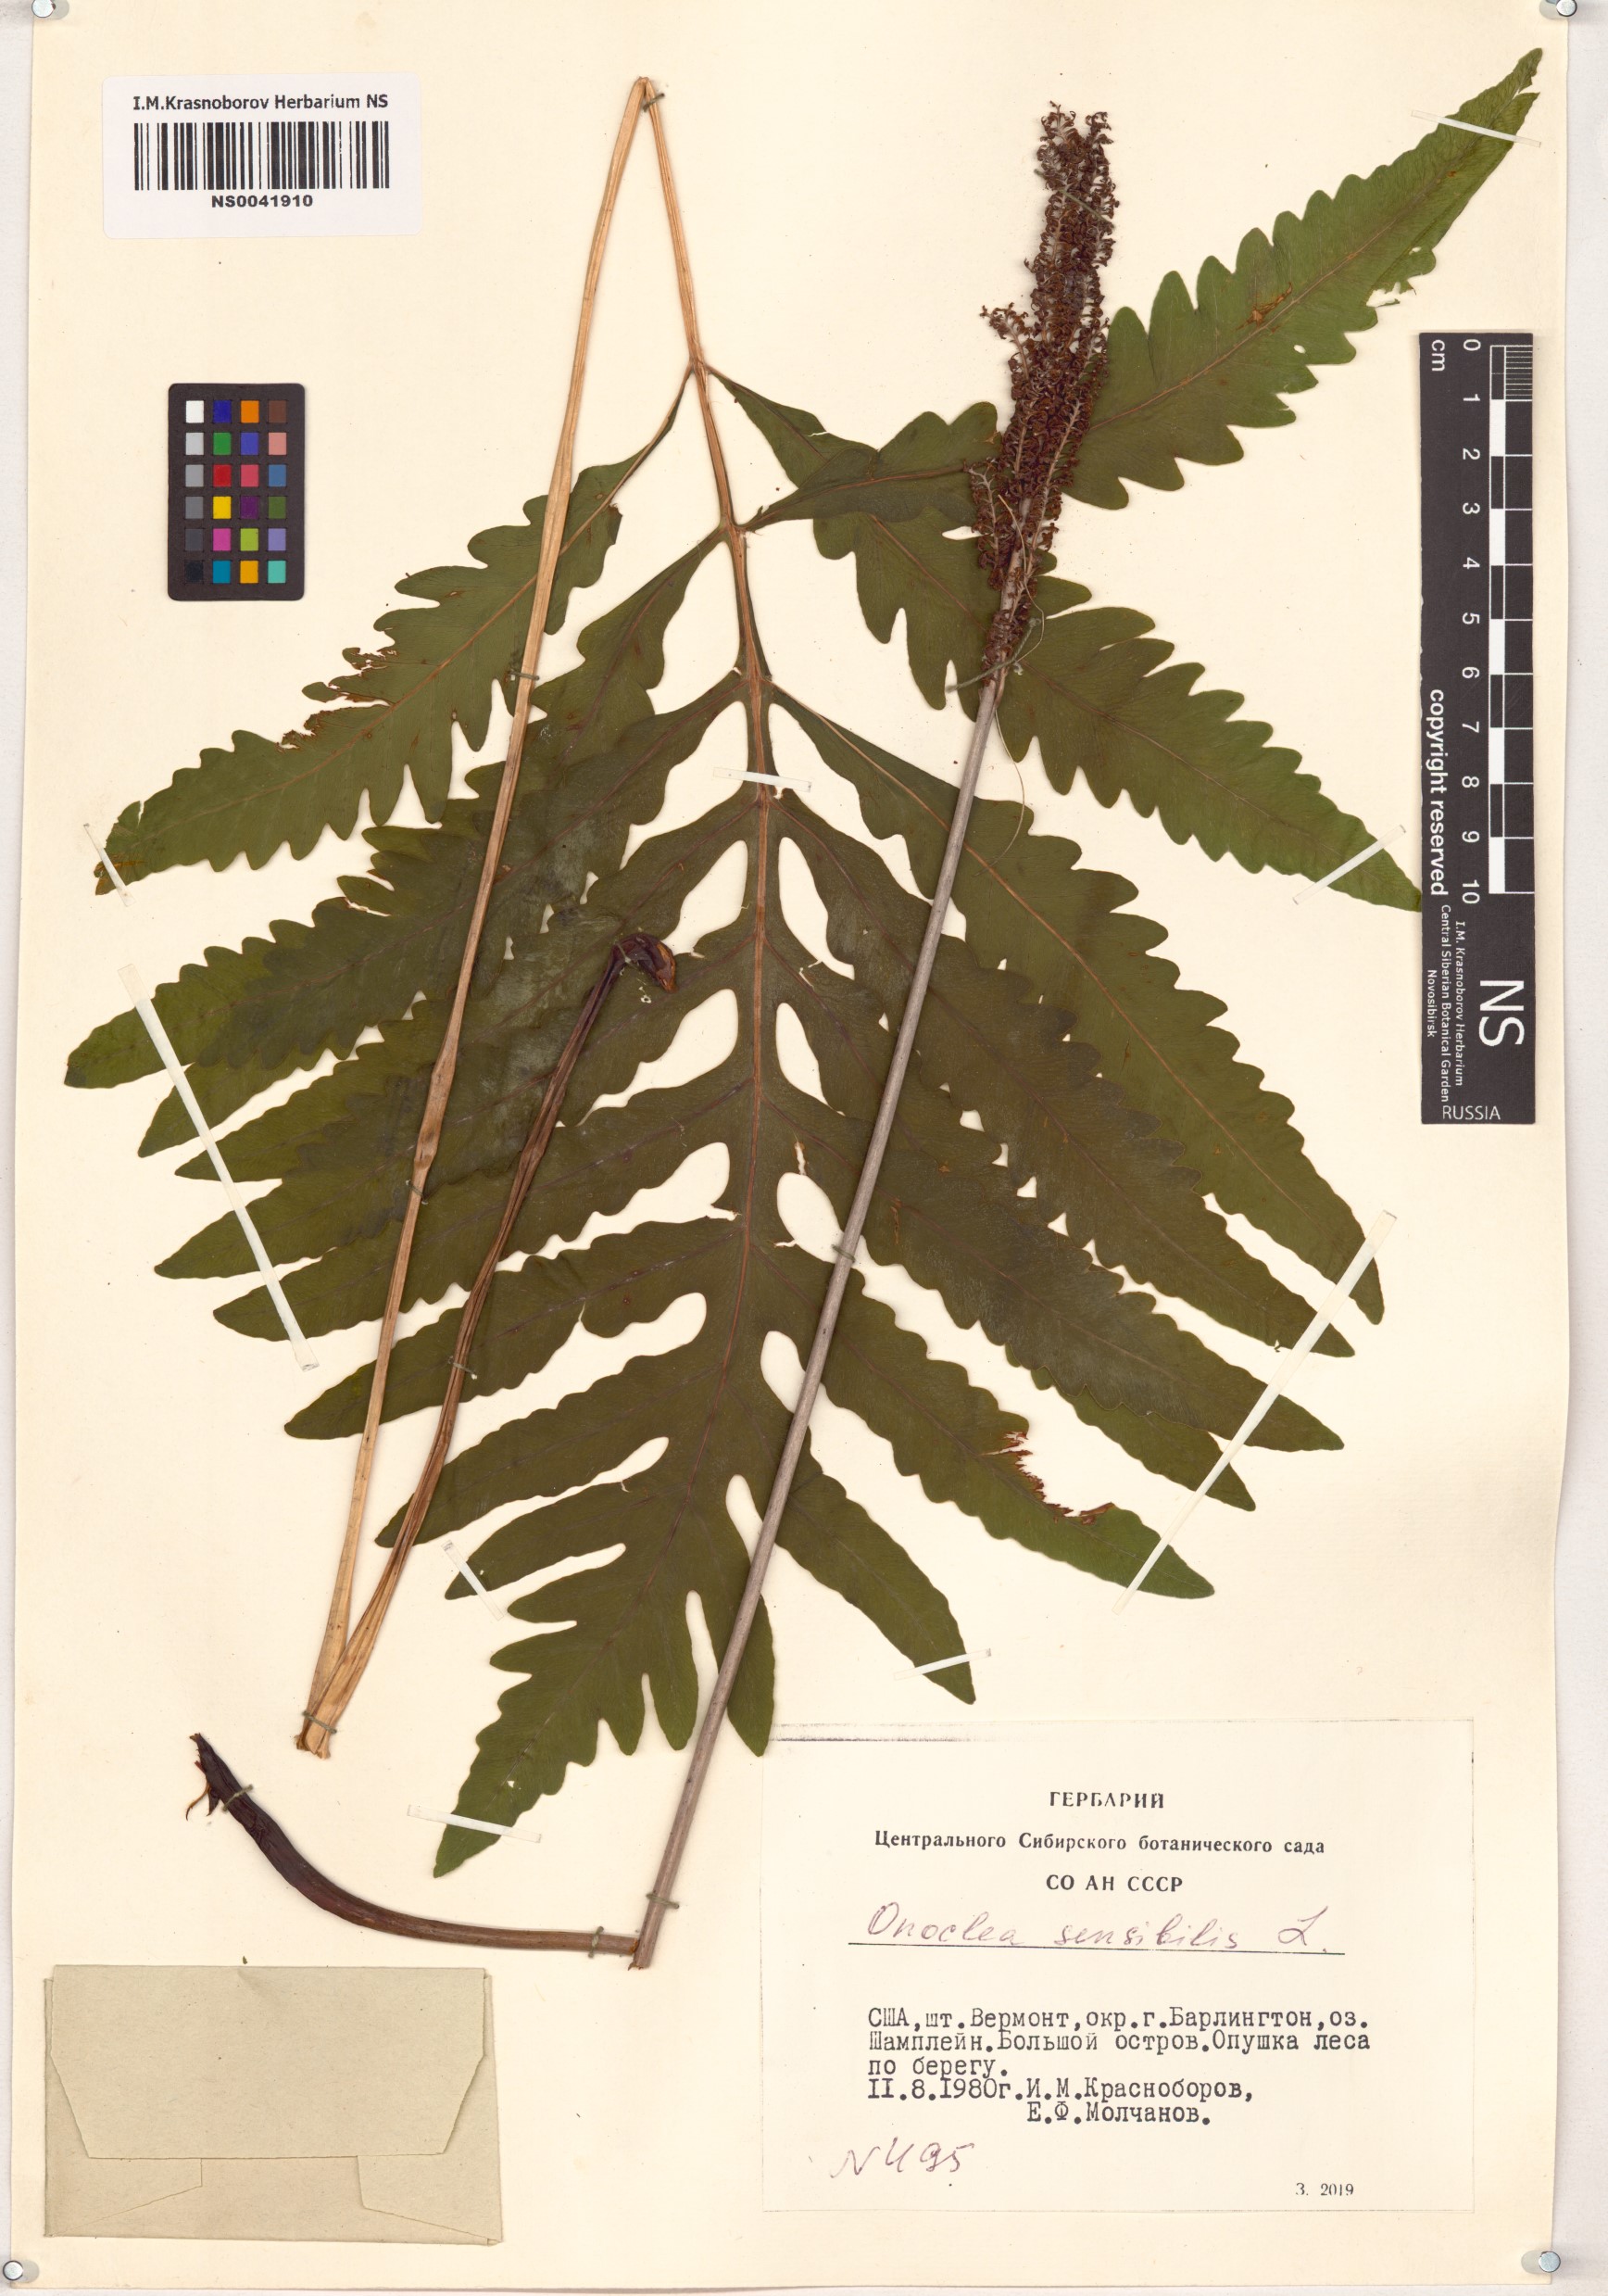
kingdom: Plantae
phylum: Tracheophyta
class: Polypodiopsida
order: Polypodiales
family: Onocleaceae
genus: Onoclea
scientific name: Onoclea sensibilis
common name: Sensitive fern
